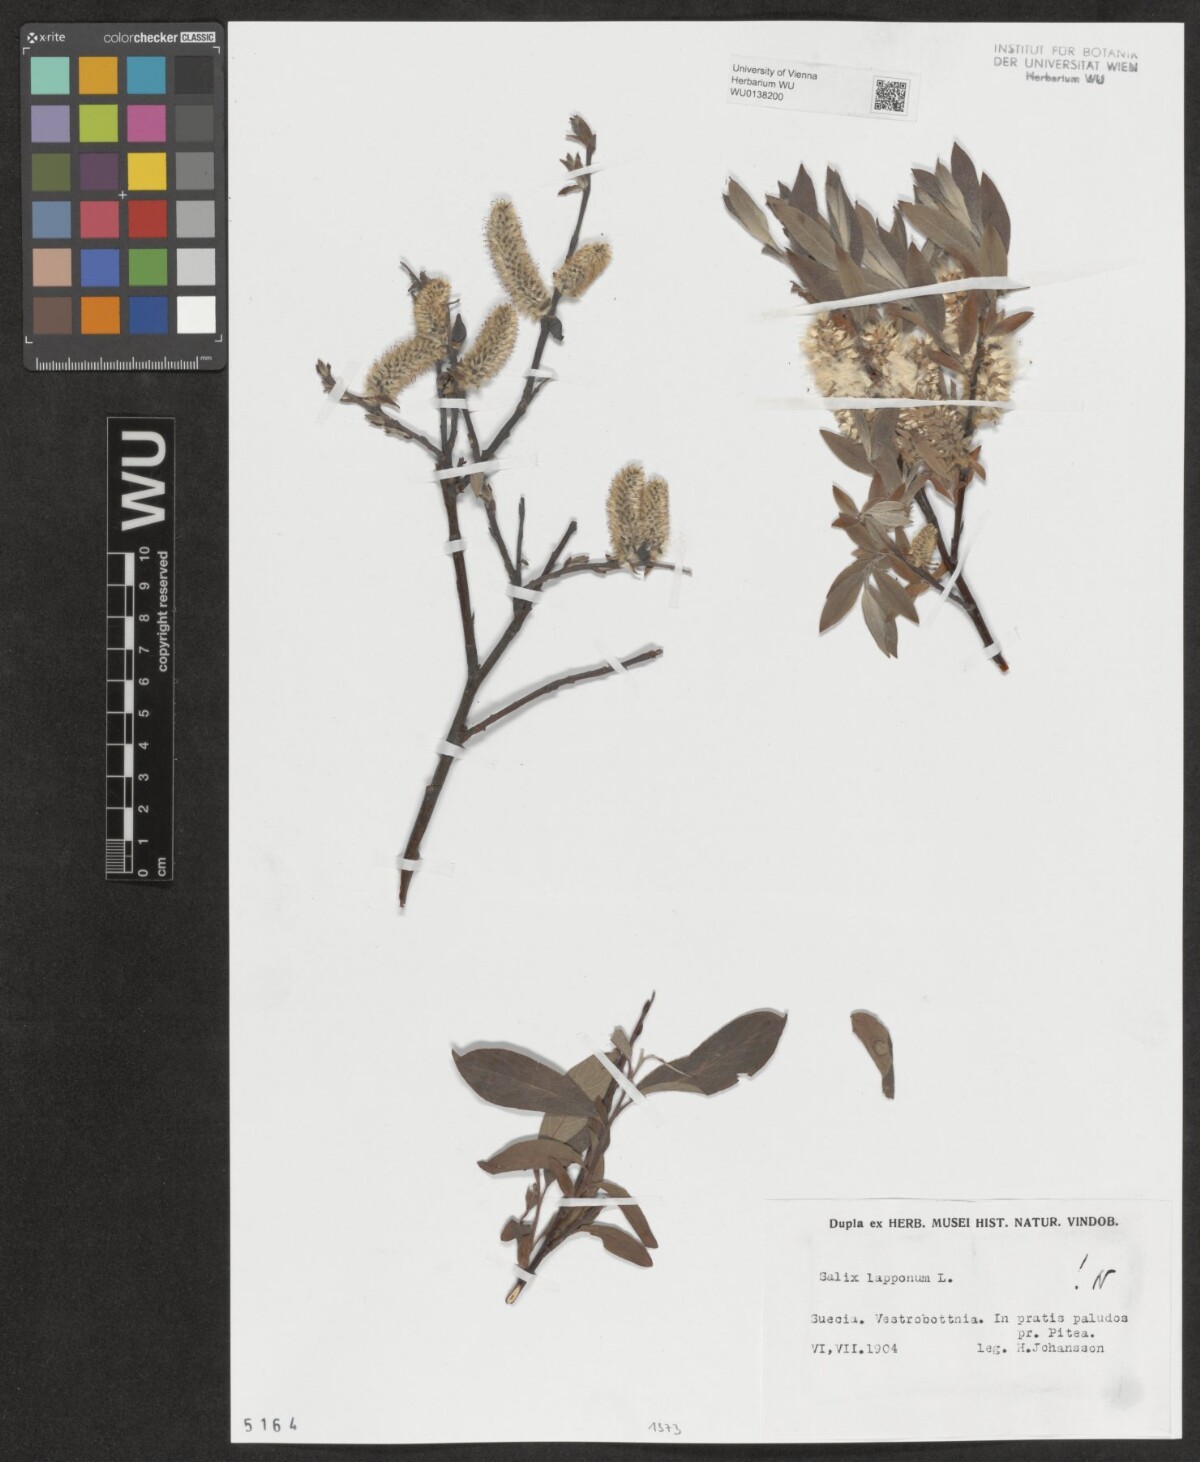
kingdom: Plantae
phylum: Tracheophyta
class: Magnoliopsida
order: Malpighiales
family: Salicaceae
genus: Salix
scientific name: Salix lapponum
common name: Downy willow
